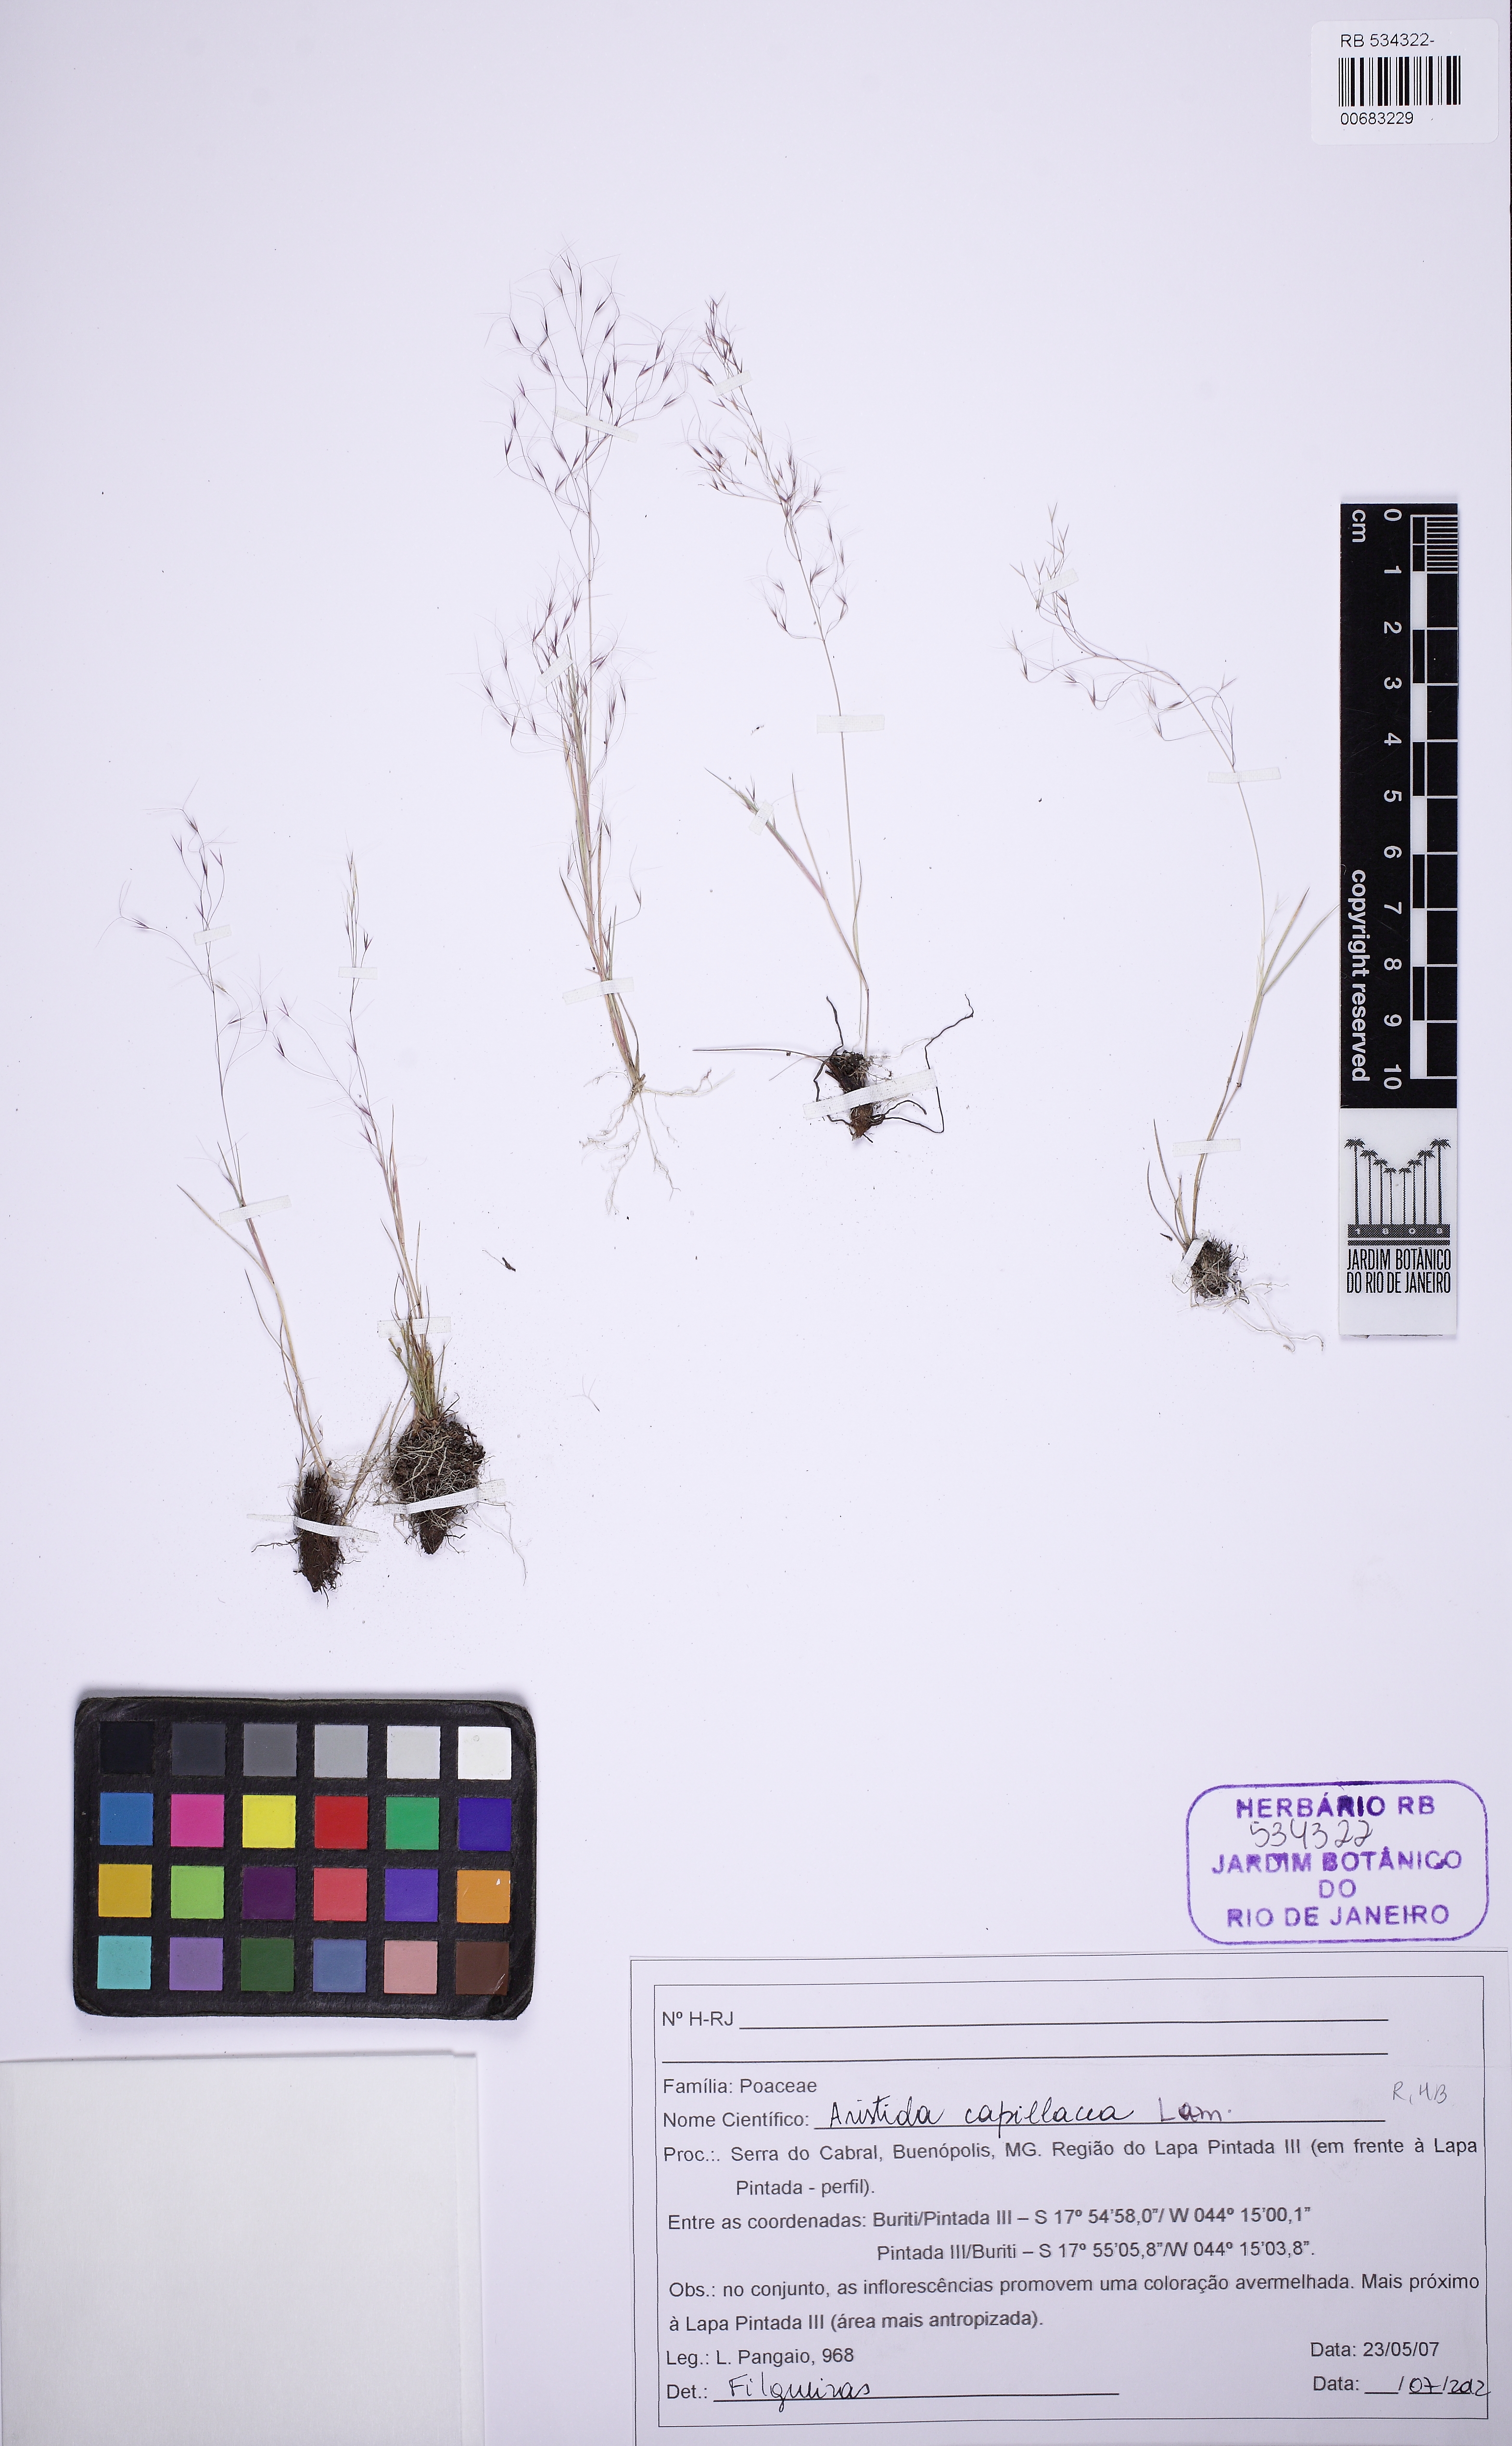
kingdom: Plantae
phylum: Tracheophyta
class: Liliopsida
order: Poales
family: Poaceae
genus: Aristida
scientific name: Aristida capillacea
